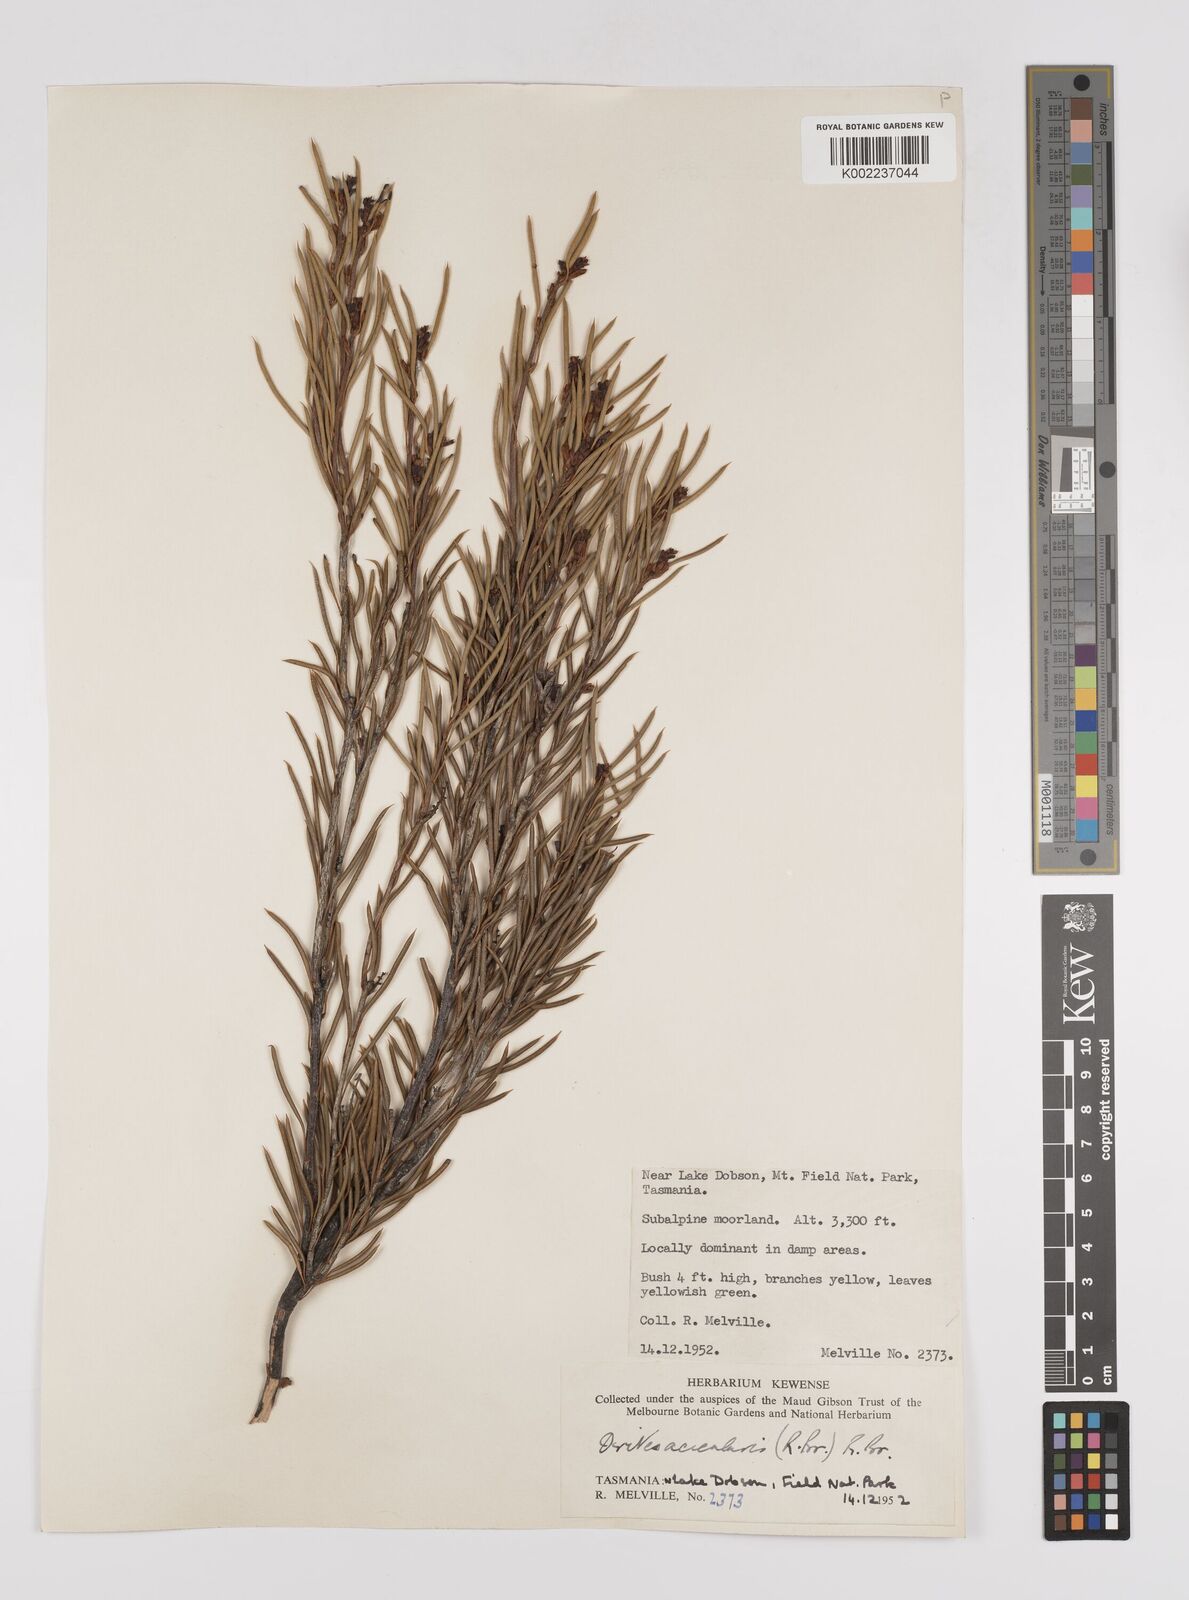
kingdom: Plantae
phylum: Tracheophyta
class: Magnoliopsida
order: Proteales
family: Proteaceae
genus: Orites
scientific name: Orites acicularis
